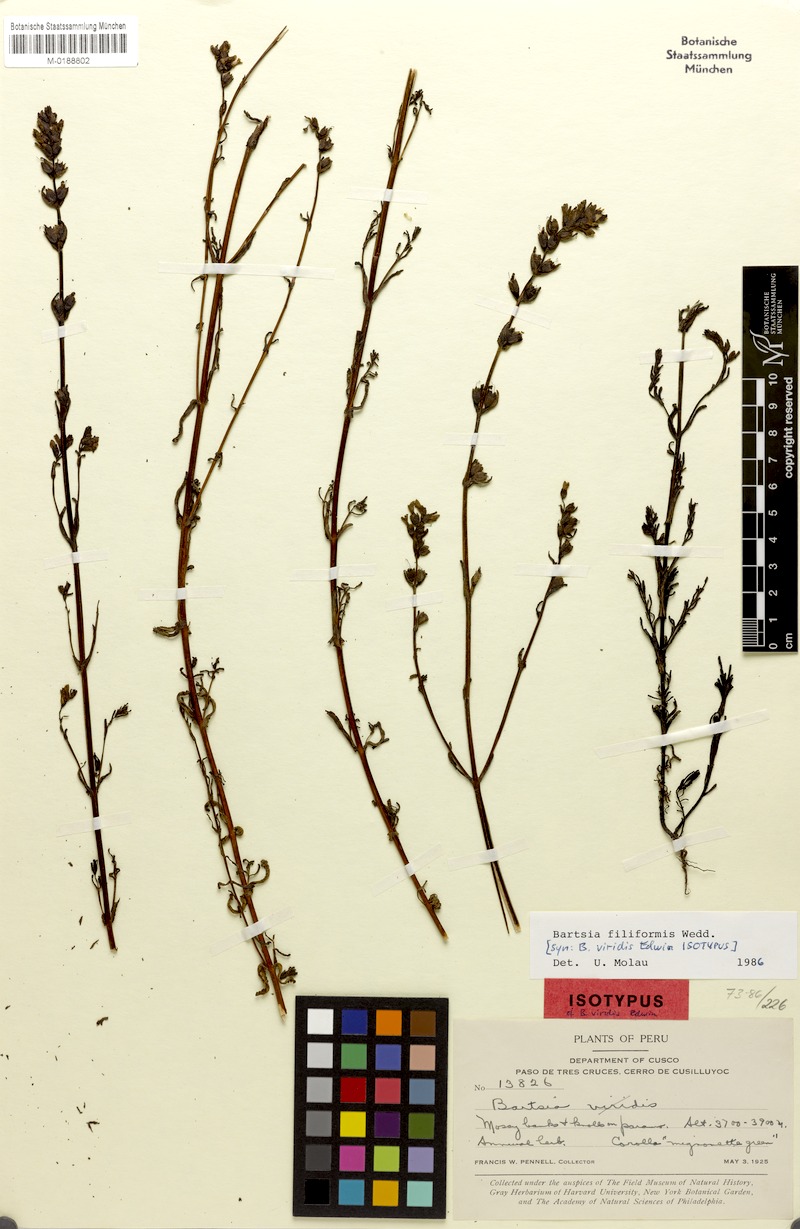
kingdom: Plantae
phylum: Tracheophyta
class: Magnoliopsida
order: Lamiales
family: Orobanchaceae
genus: Neobartsia
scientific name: Neobartsia filiformis
